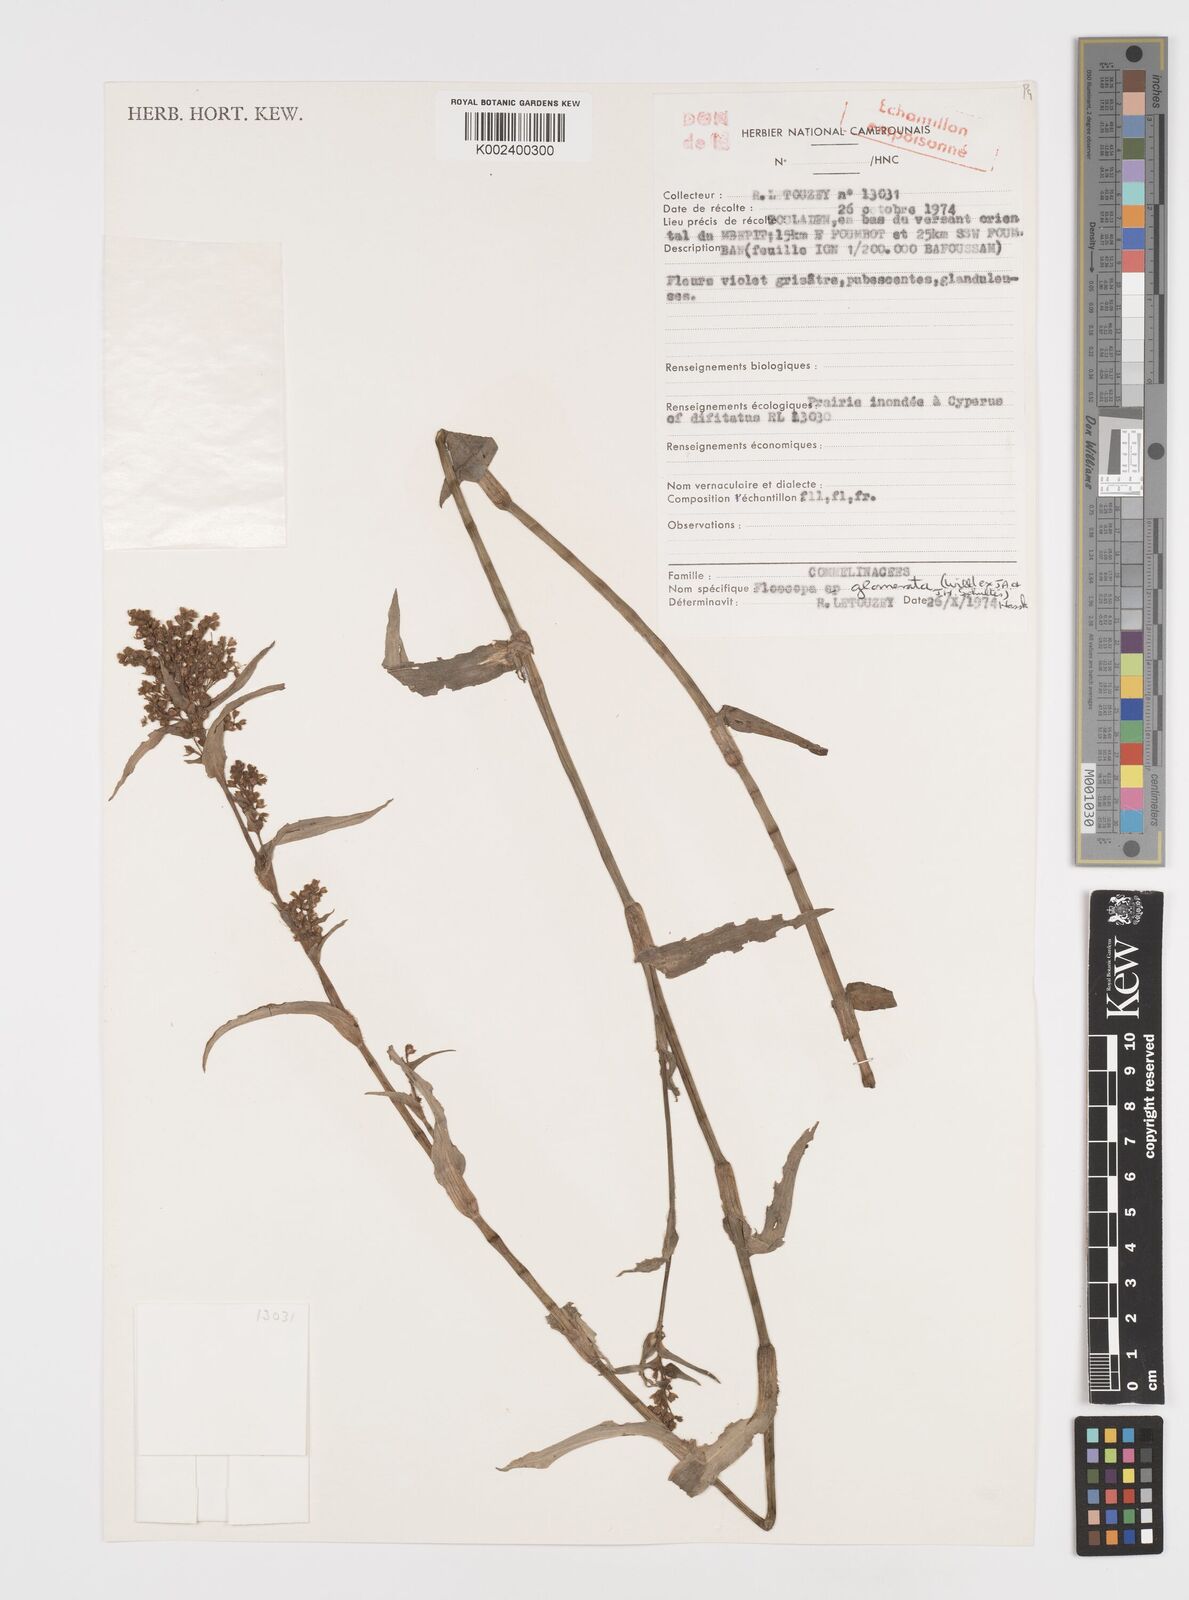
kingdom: Plantae
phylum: Tracheophyta
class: Liliopsida
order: Commelinales
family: Commelinaceae
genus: Floscopa
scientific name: Floscopa glomerata
